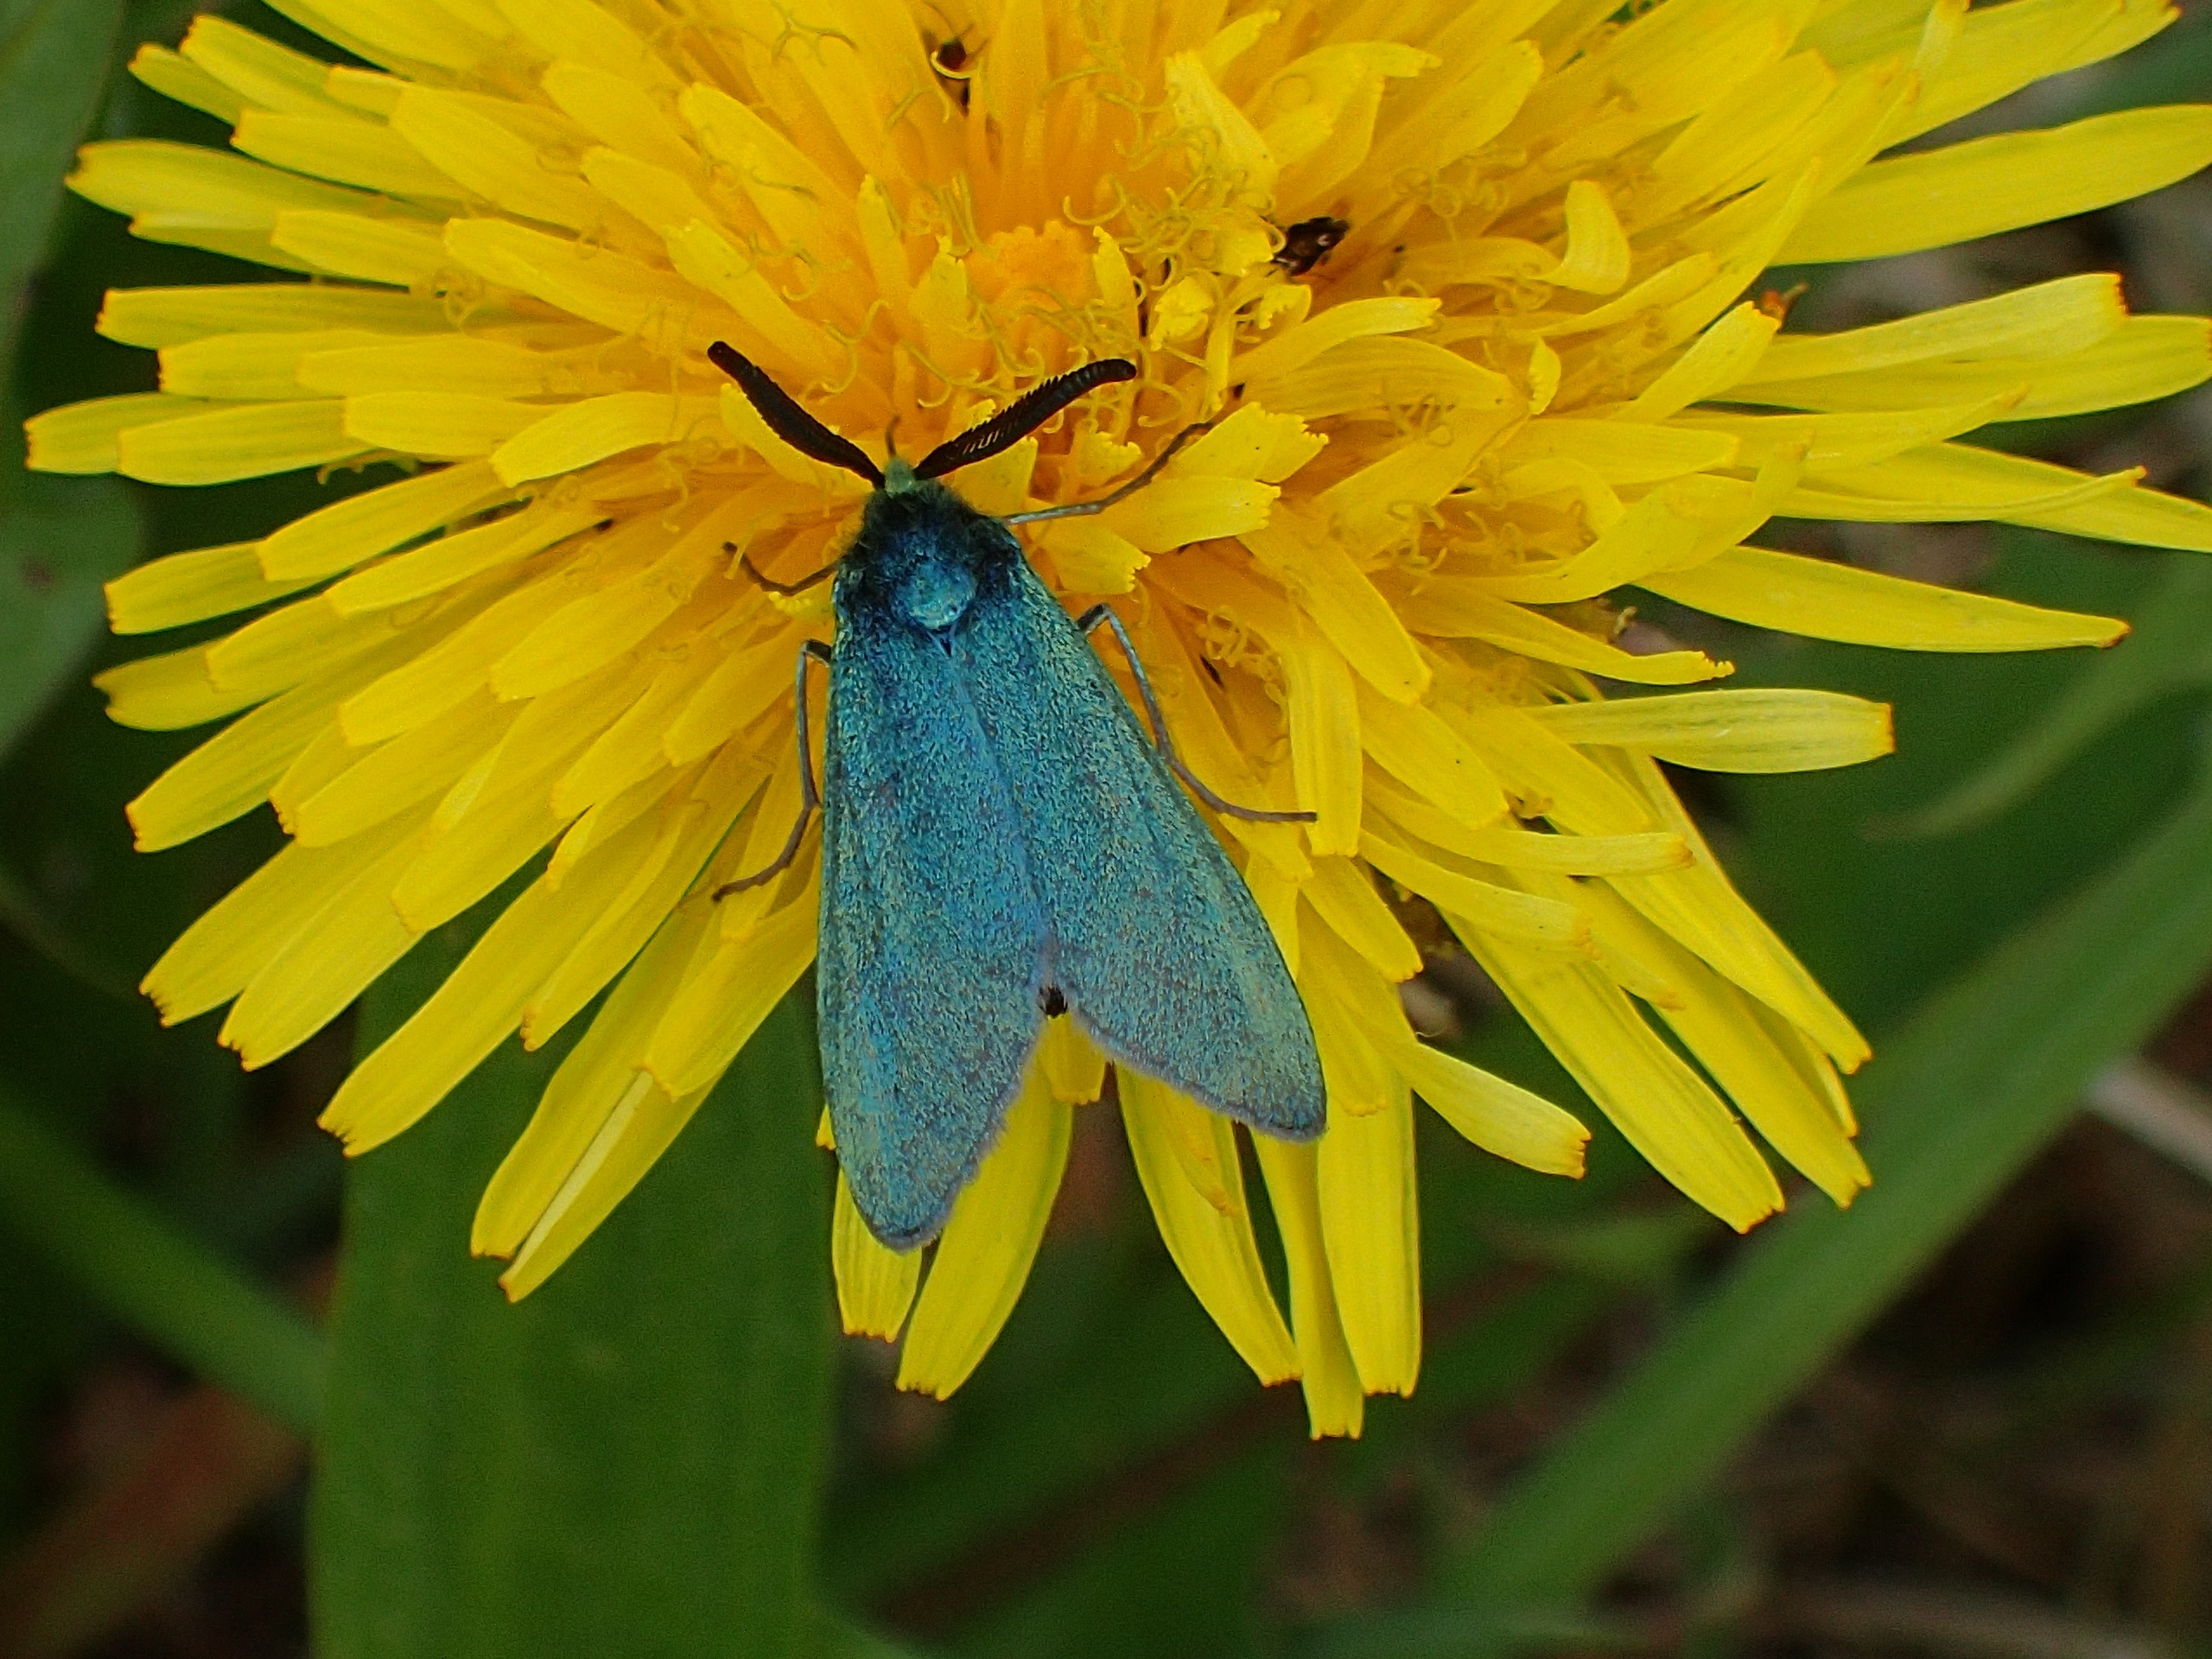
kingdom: Animalia
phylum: Arthropoda
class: Insecta
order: Lepidoptera
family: Zygaenidae
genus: Adscita
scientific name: Adscita statices
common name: Metalvinge
